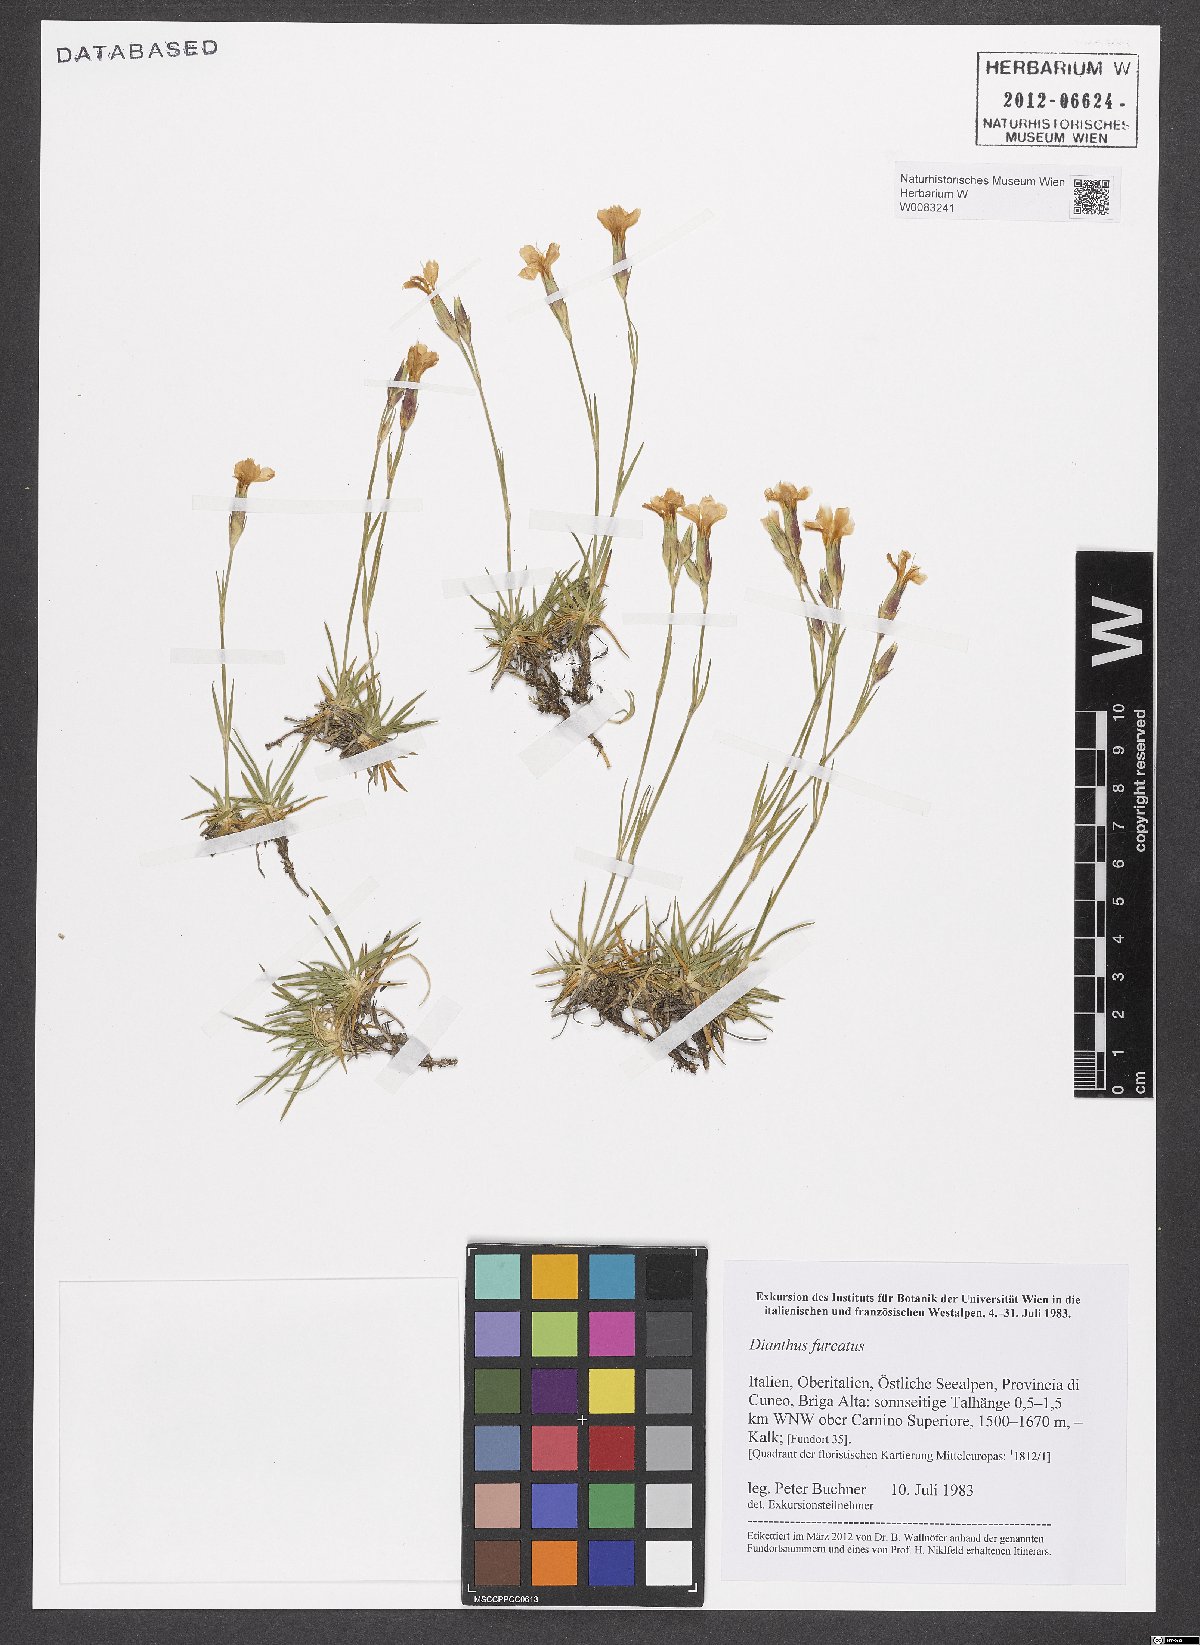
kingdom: Plantae
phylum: Tracheophyta
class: Magnoliopsida
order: Caryophyllales
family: Caryophyllaceae
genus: Dianthus
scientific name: Dianthus furcatus
